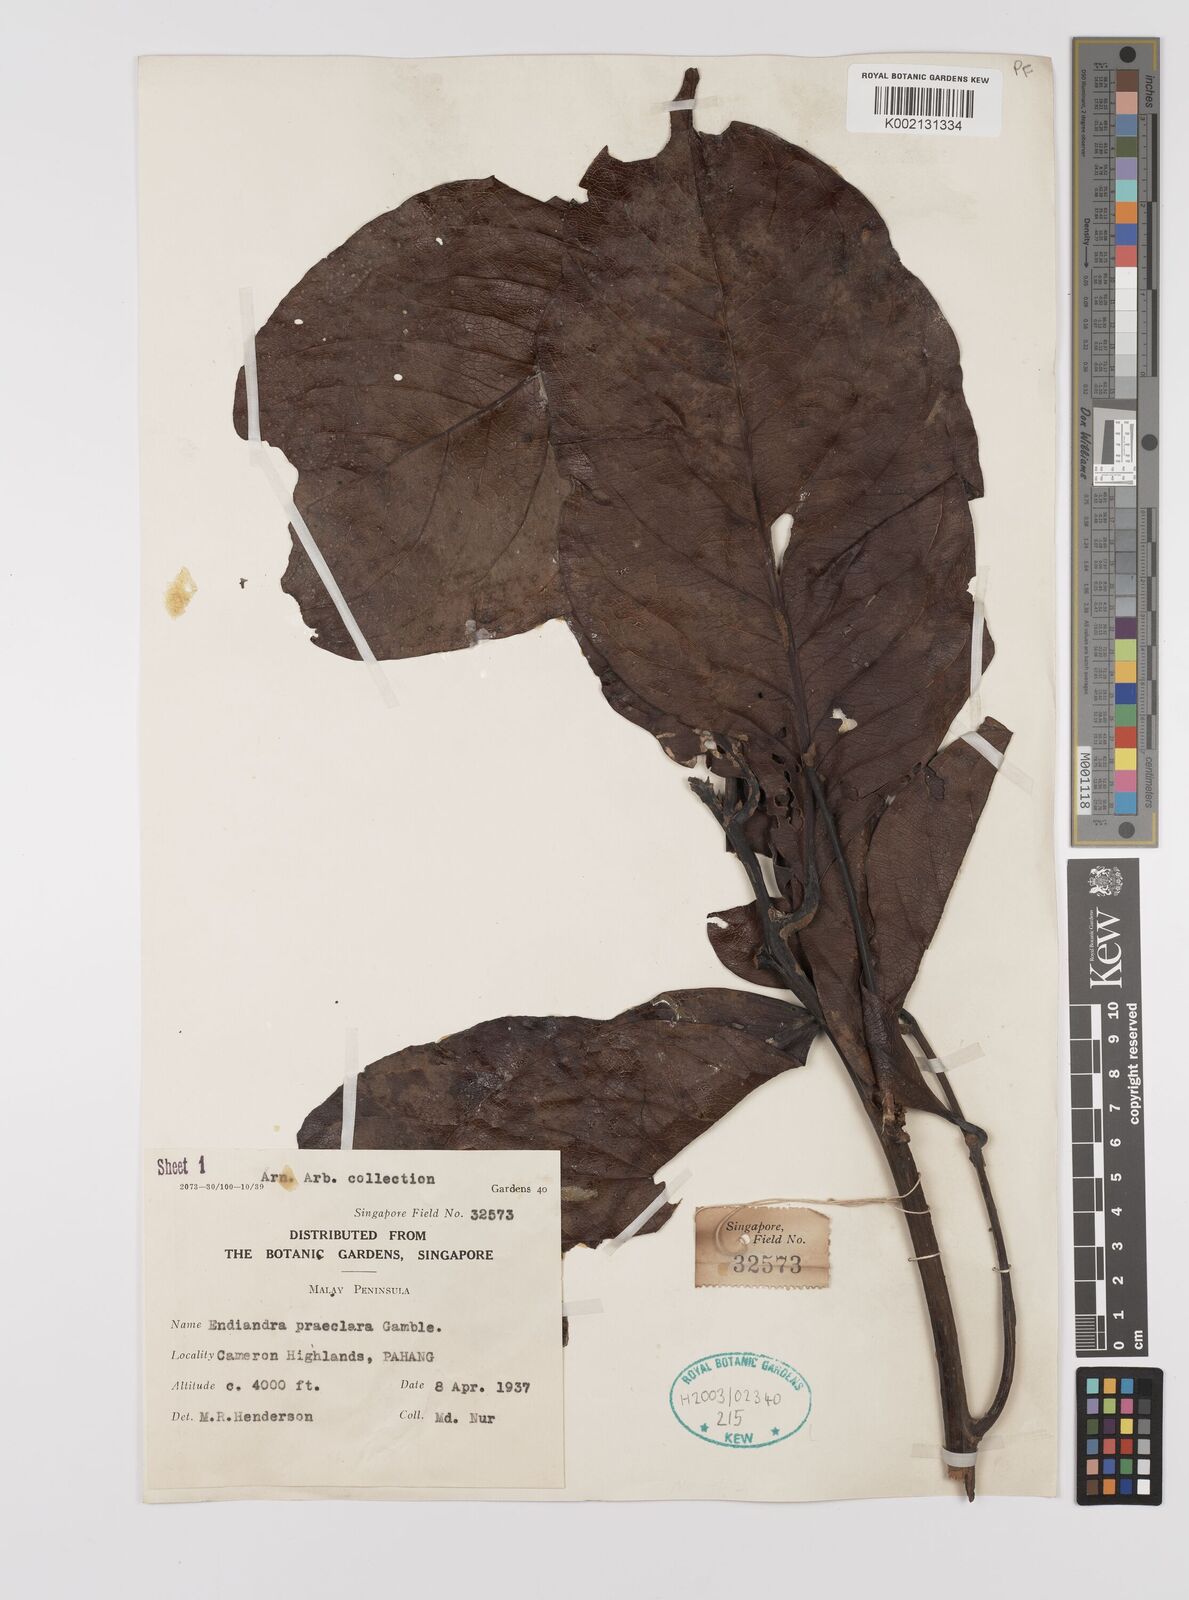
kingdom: Plantae
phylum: Tracheophyta
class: Magnoliopsida
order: Laurales
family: Lauraceae
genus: Endiandra
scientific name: Endiandra praeclara
